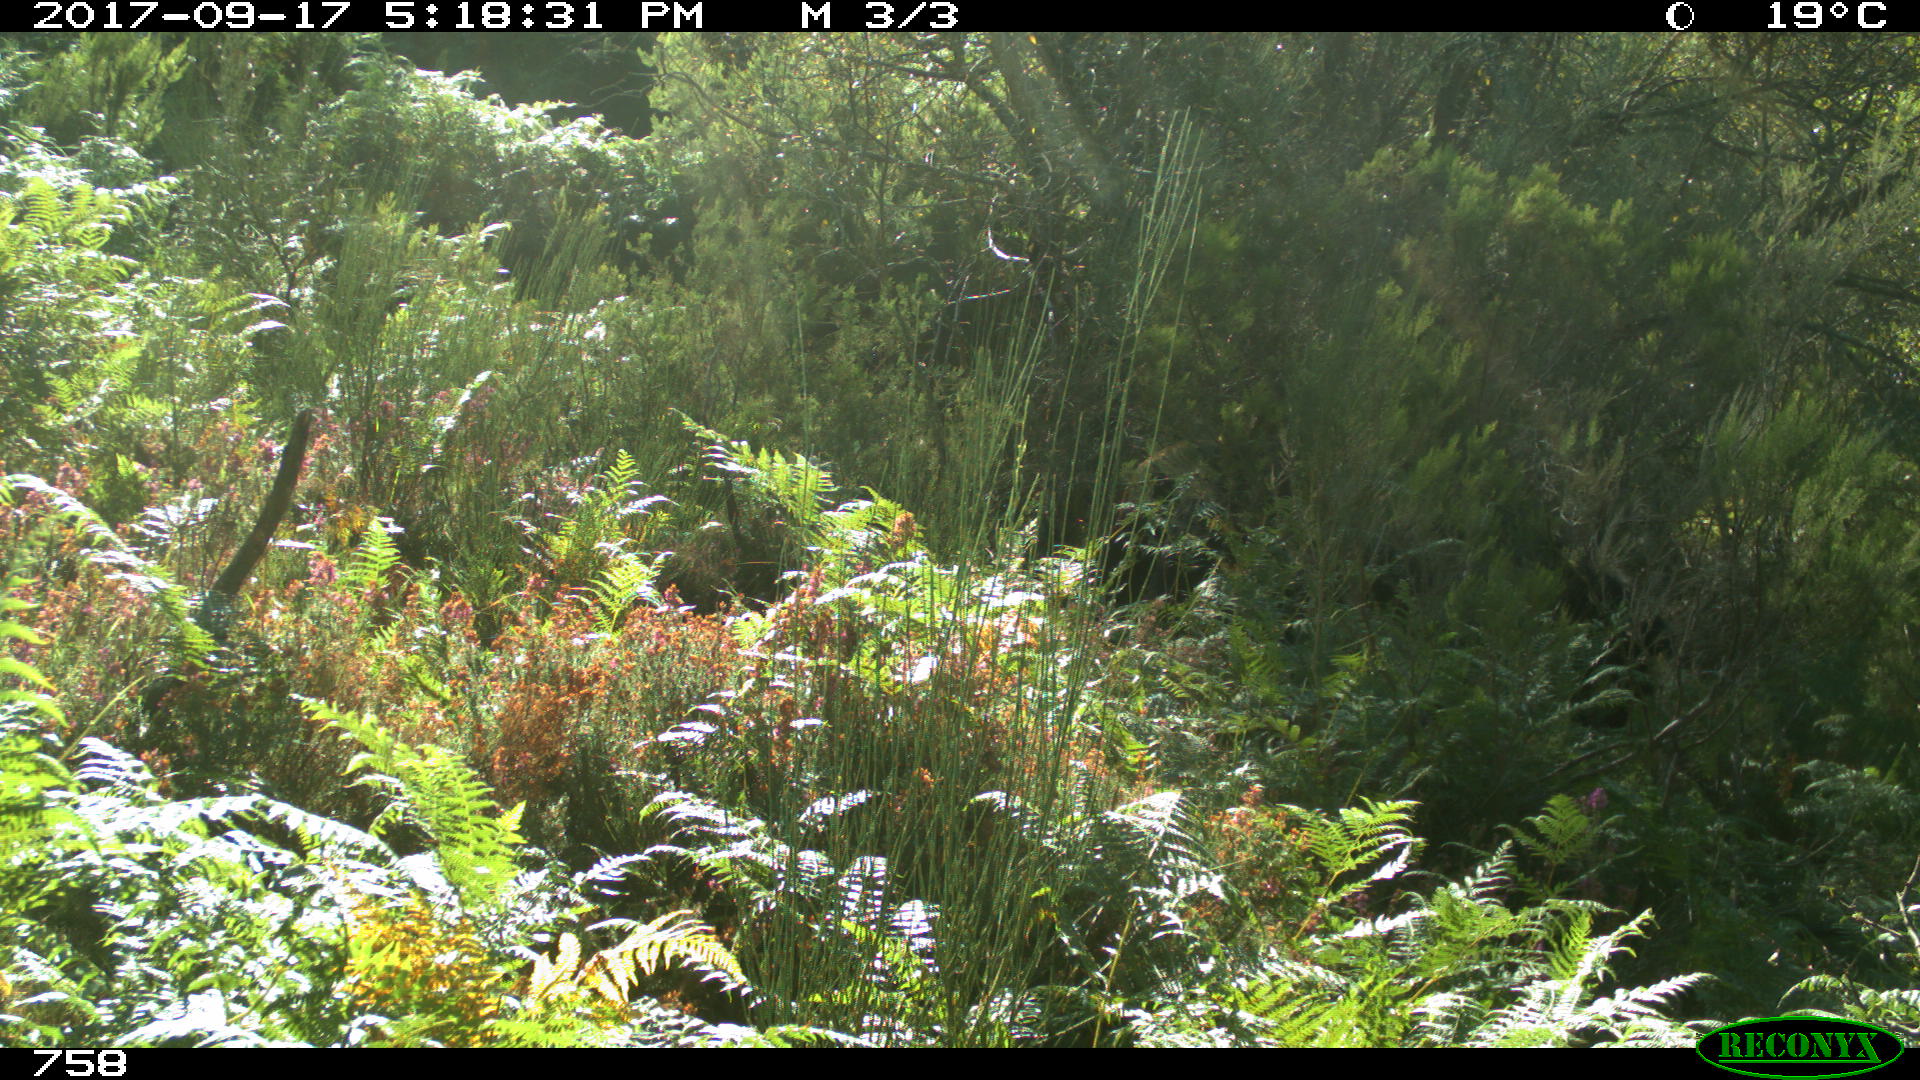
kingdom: Animalia
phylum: Chordata
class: Mammalia
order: Perissodactyla
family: Equidae
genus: Equus
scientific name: Equus caballus
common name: Horse
